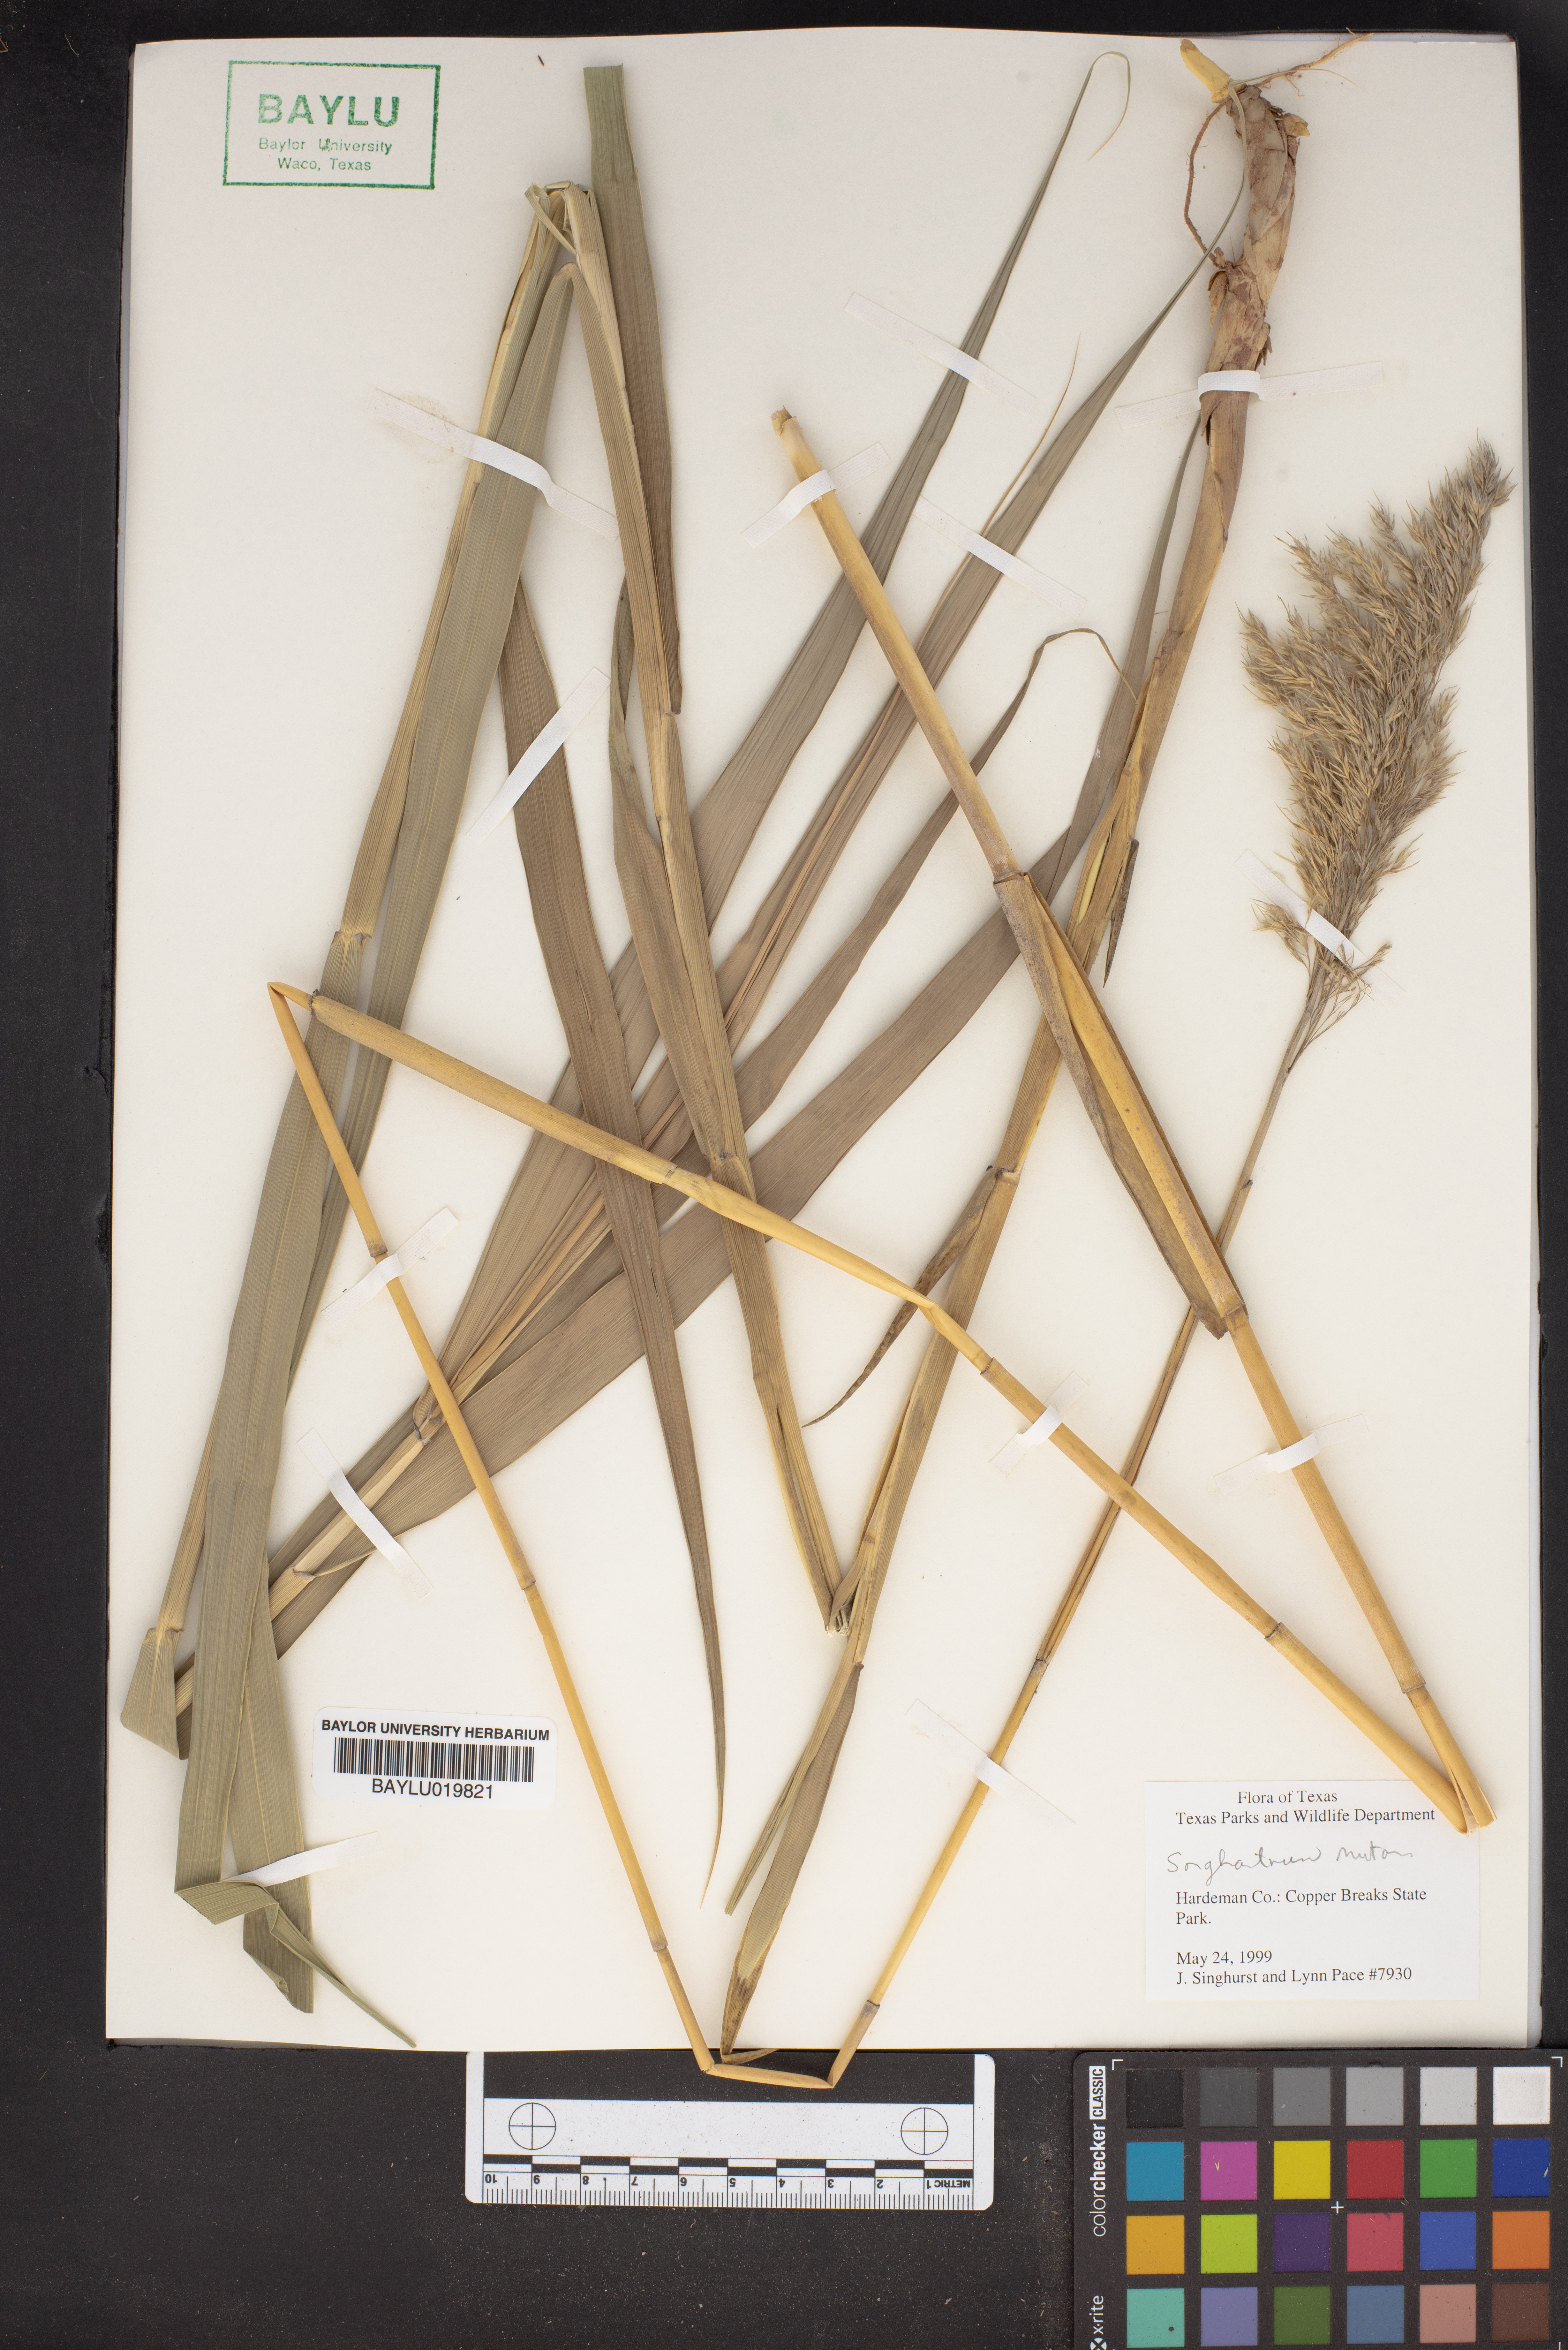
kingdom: Plantae
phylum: Tracheophyta
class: Liliopsida
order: Poales
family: Poaceae
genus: Sorghastrum
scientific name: Sorghastrum
